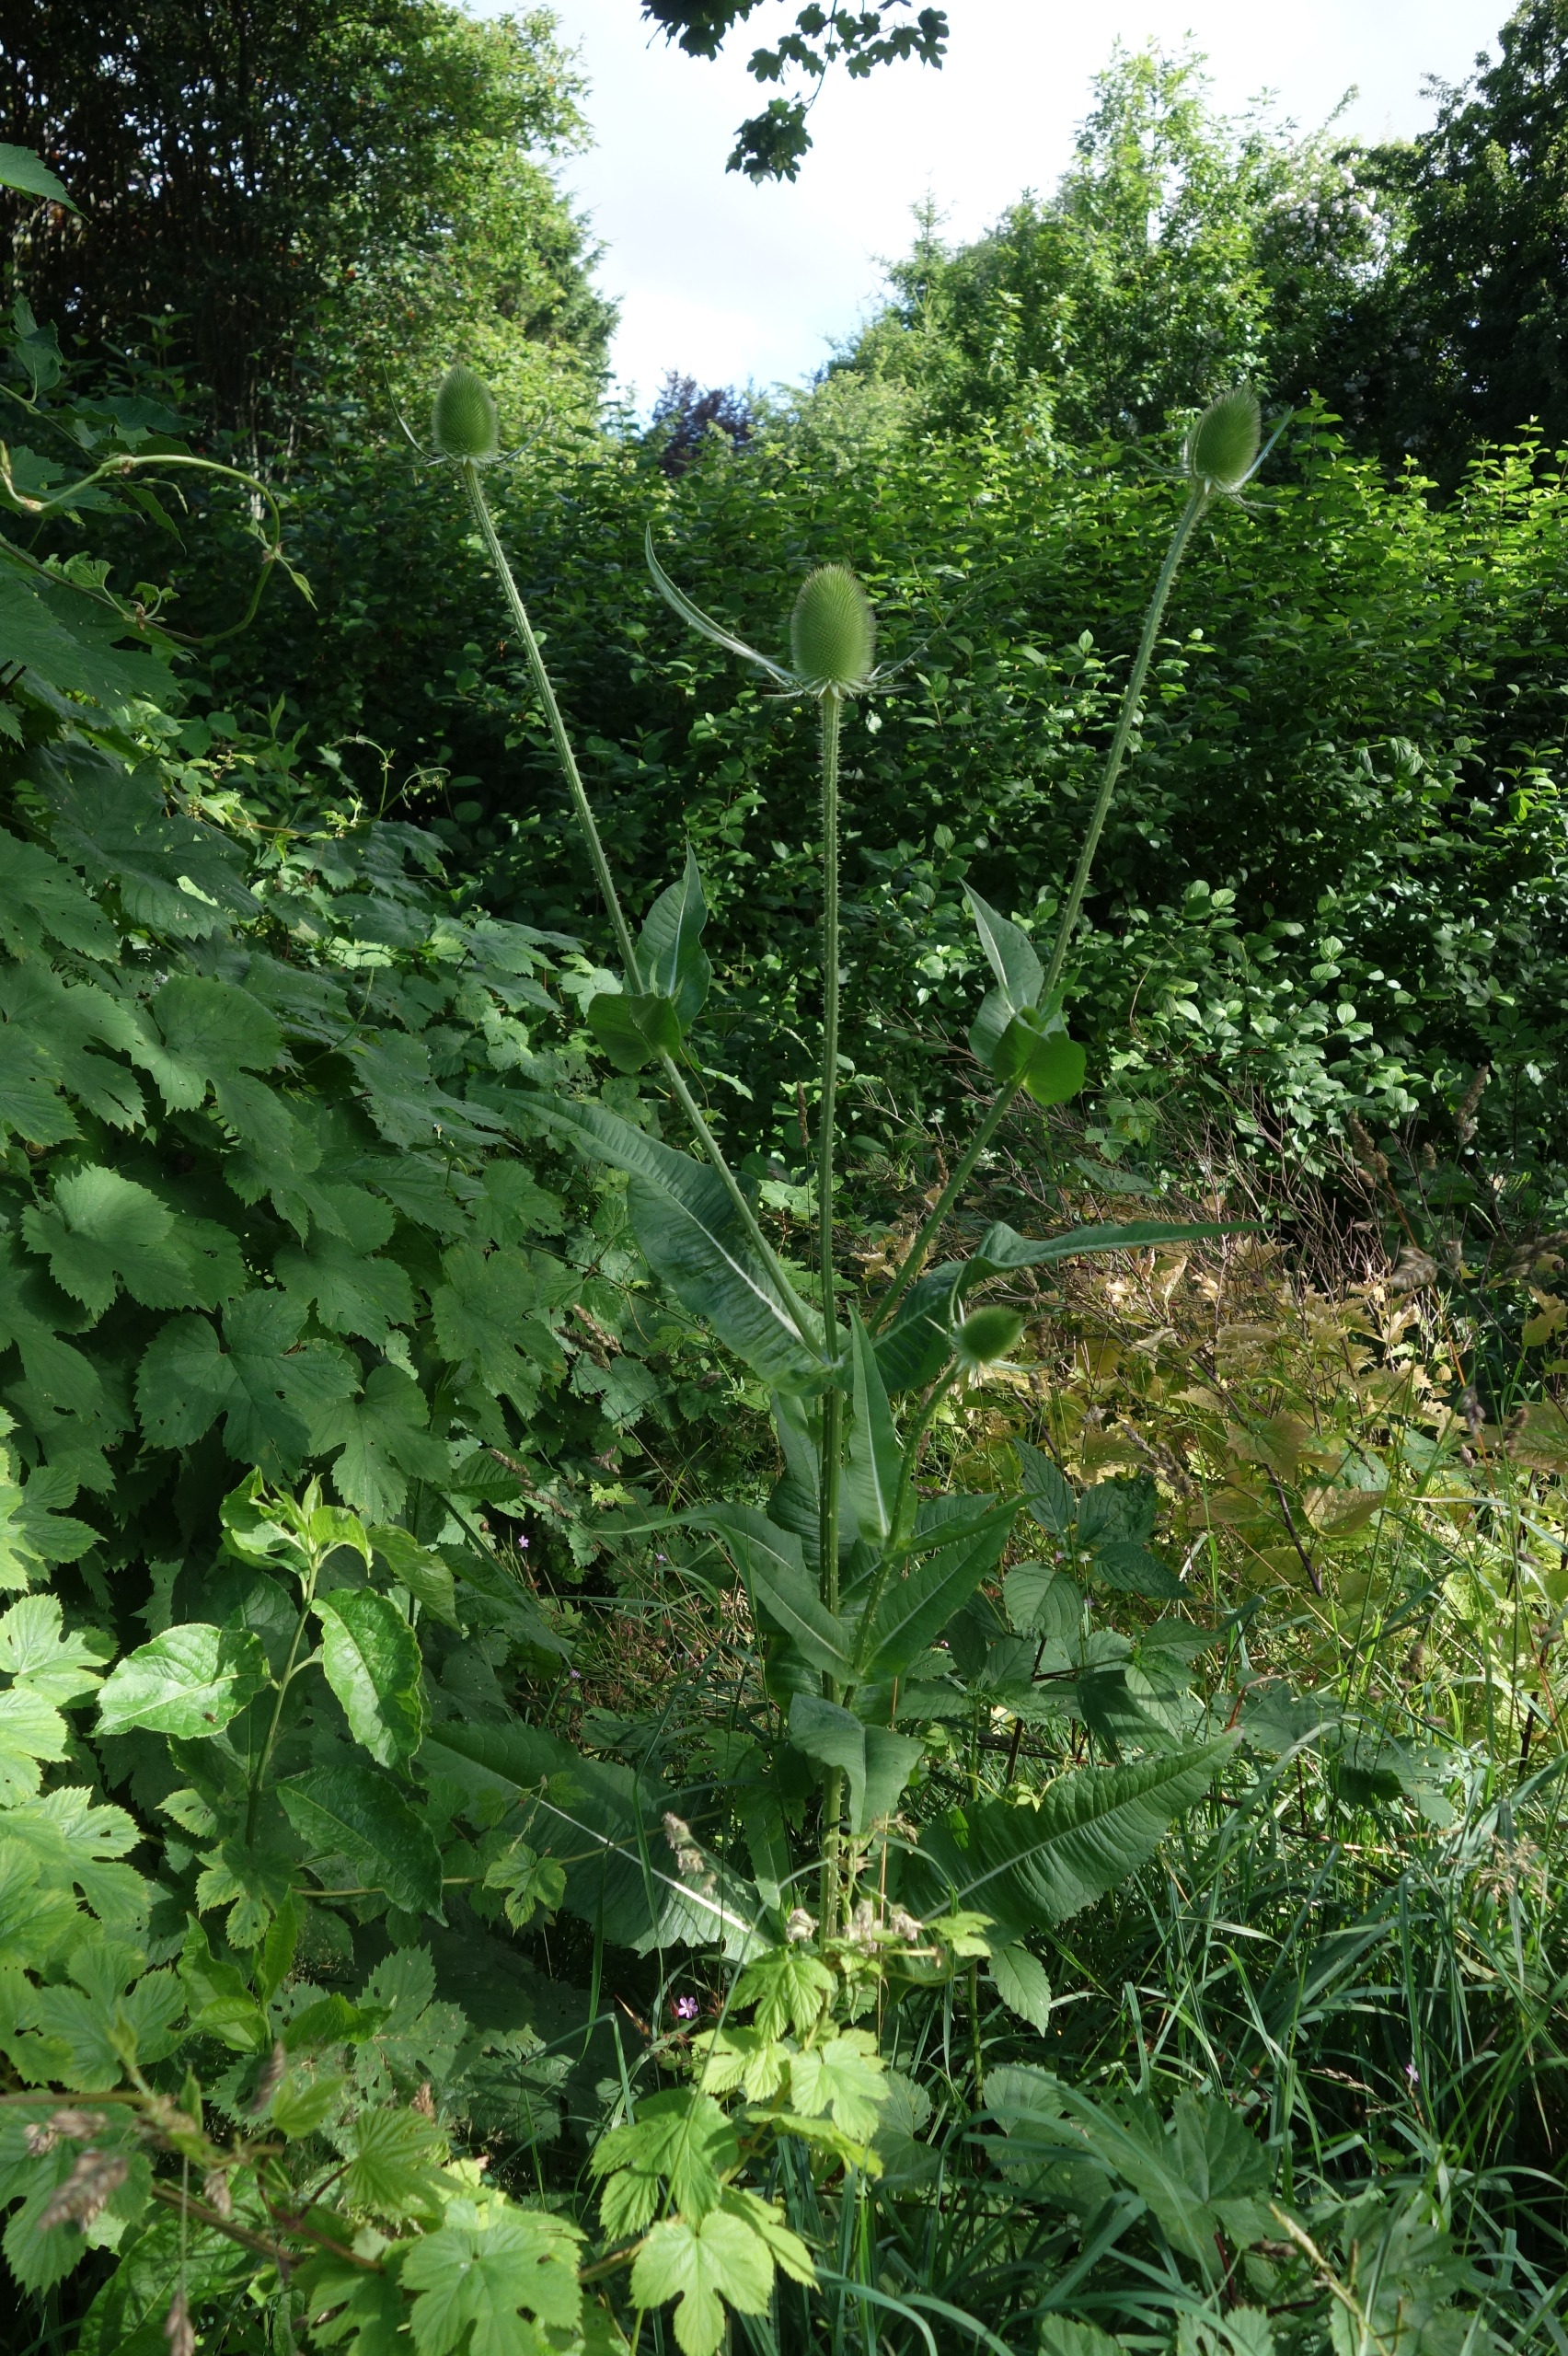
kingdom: Plantae
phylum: Tracheophyta
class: Magnoliopsida
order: Dipsacales
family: Caprifoliaceae
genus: Dipsacus
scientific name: Dipsacus fullonum
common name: Gærde-kartebolle
